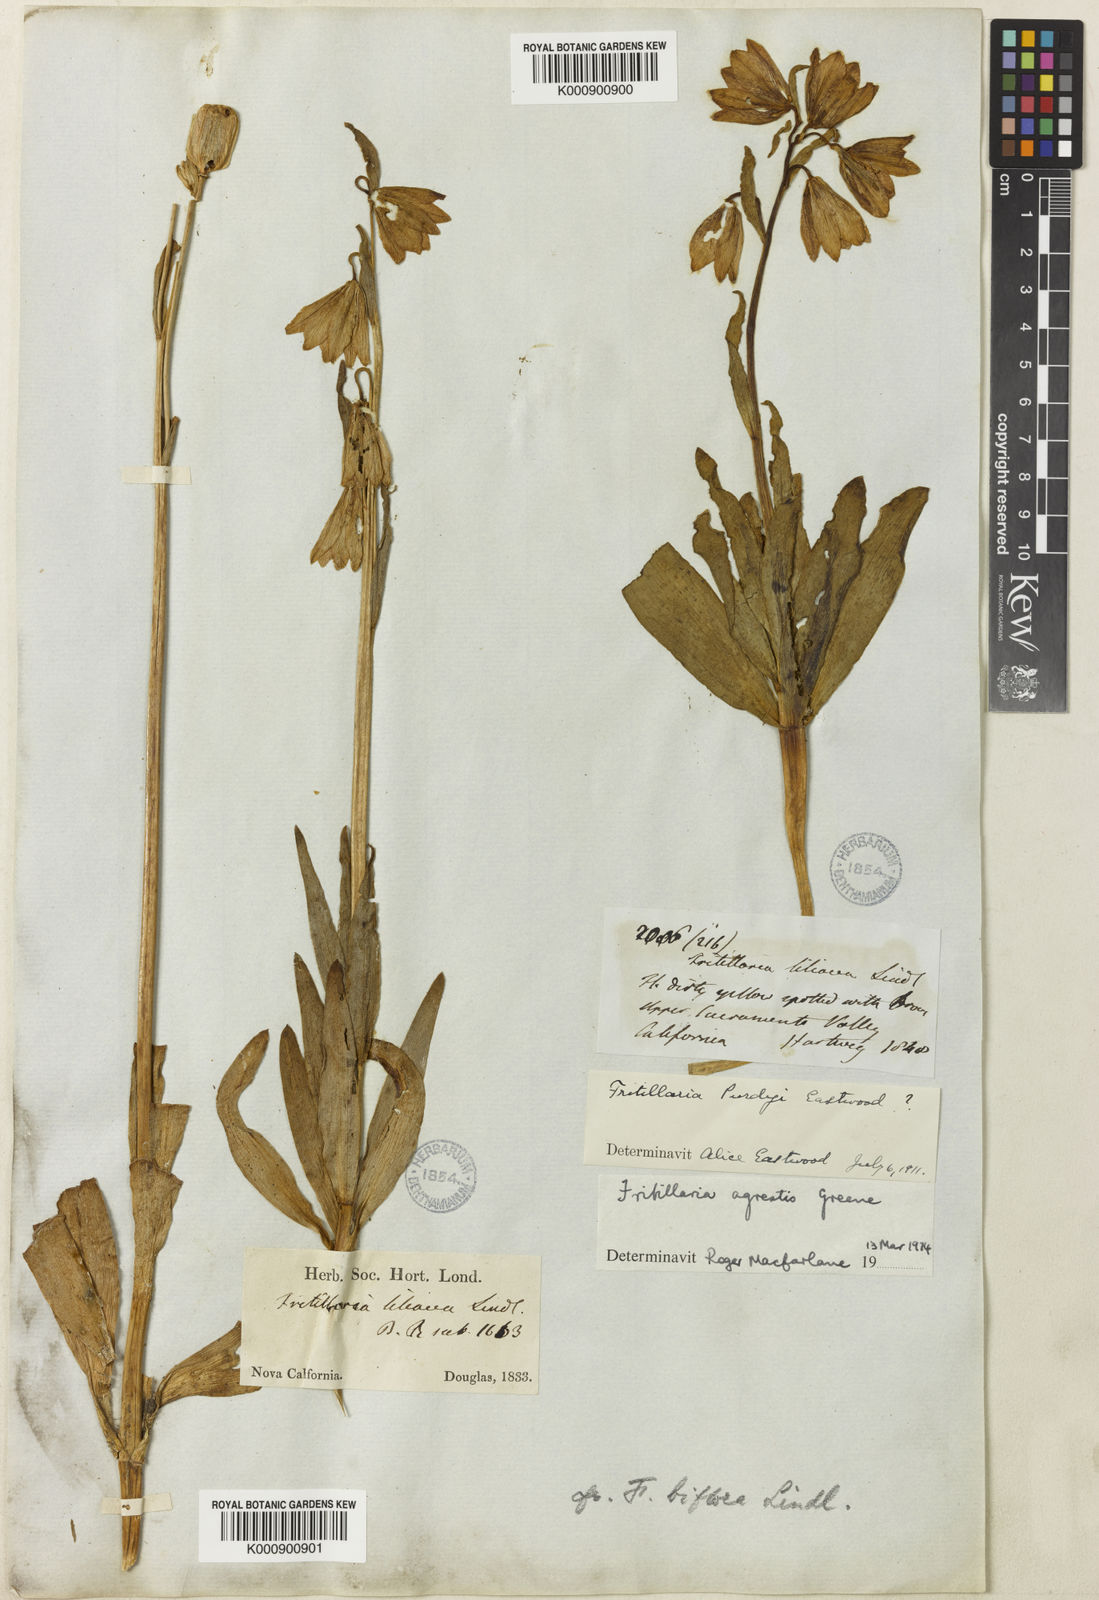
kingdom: Plantae
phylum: Tracheophyta
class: Liliopsida
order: Liliales
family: Liliaceae
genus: Fritillaria
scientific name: Fritillaria liliacea
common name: Fragrant fritillary
